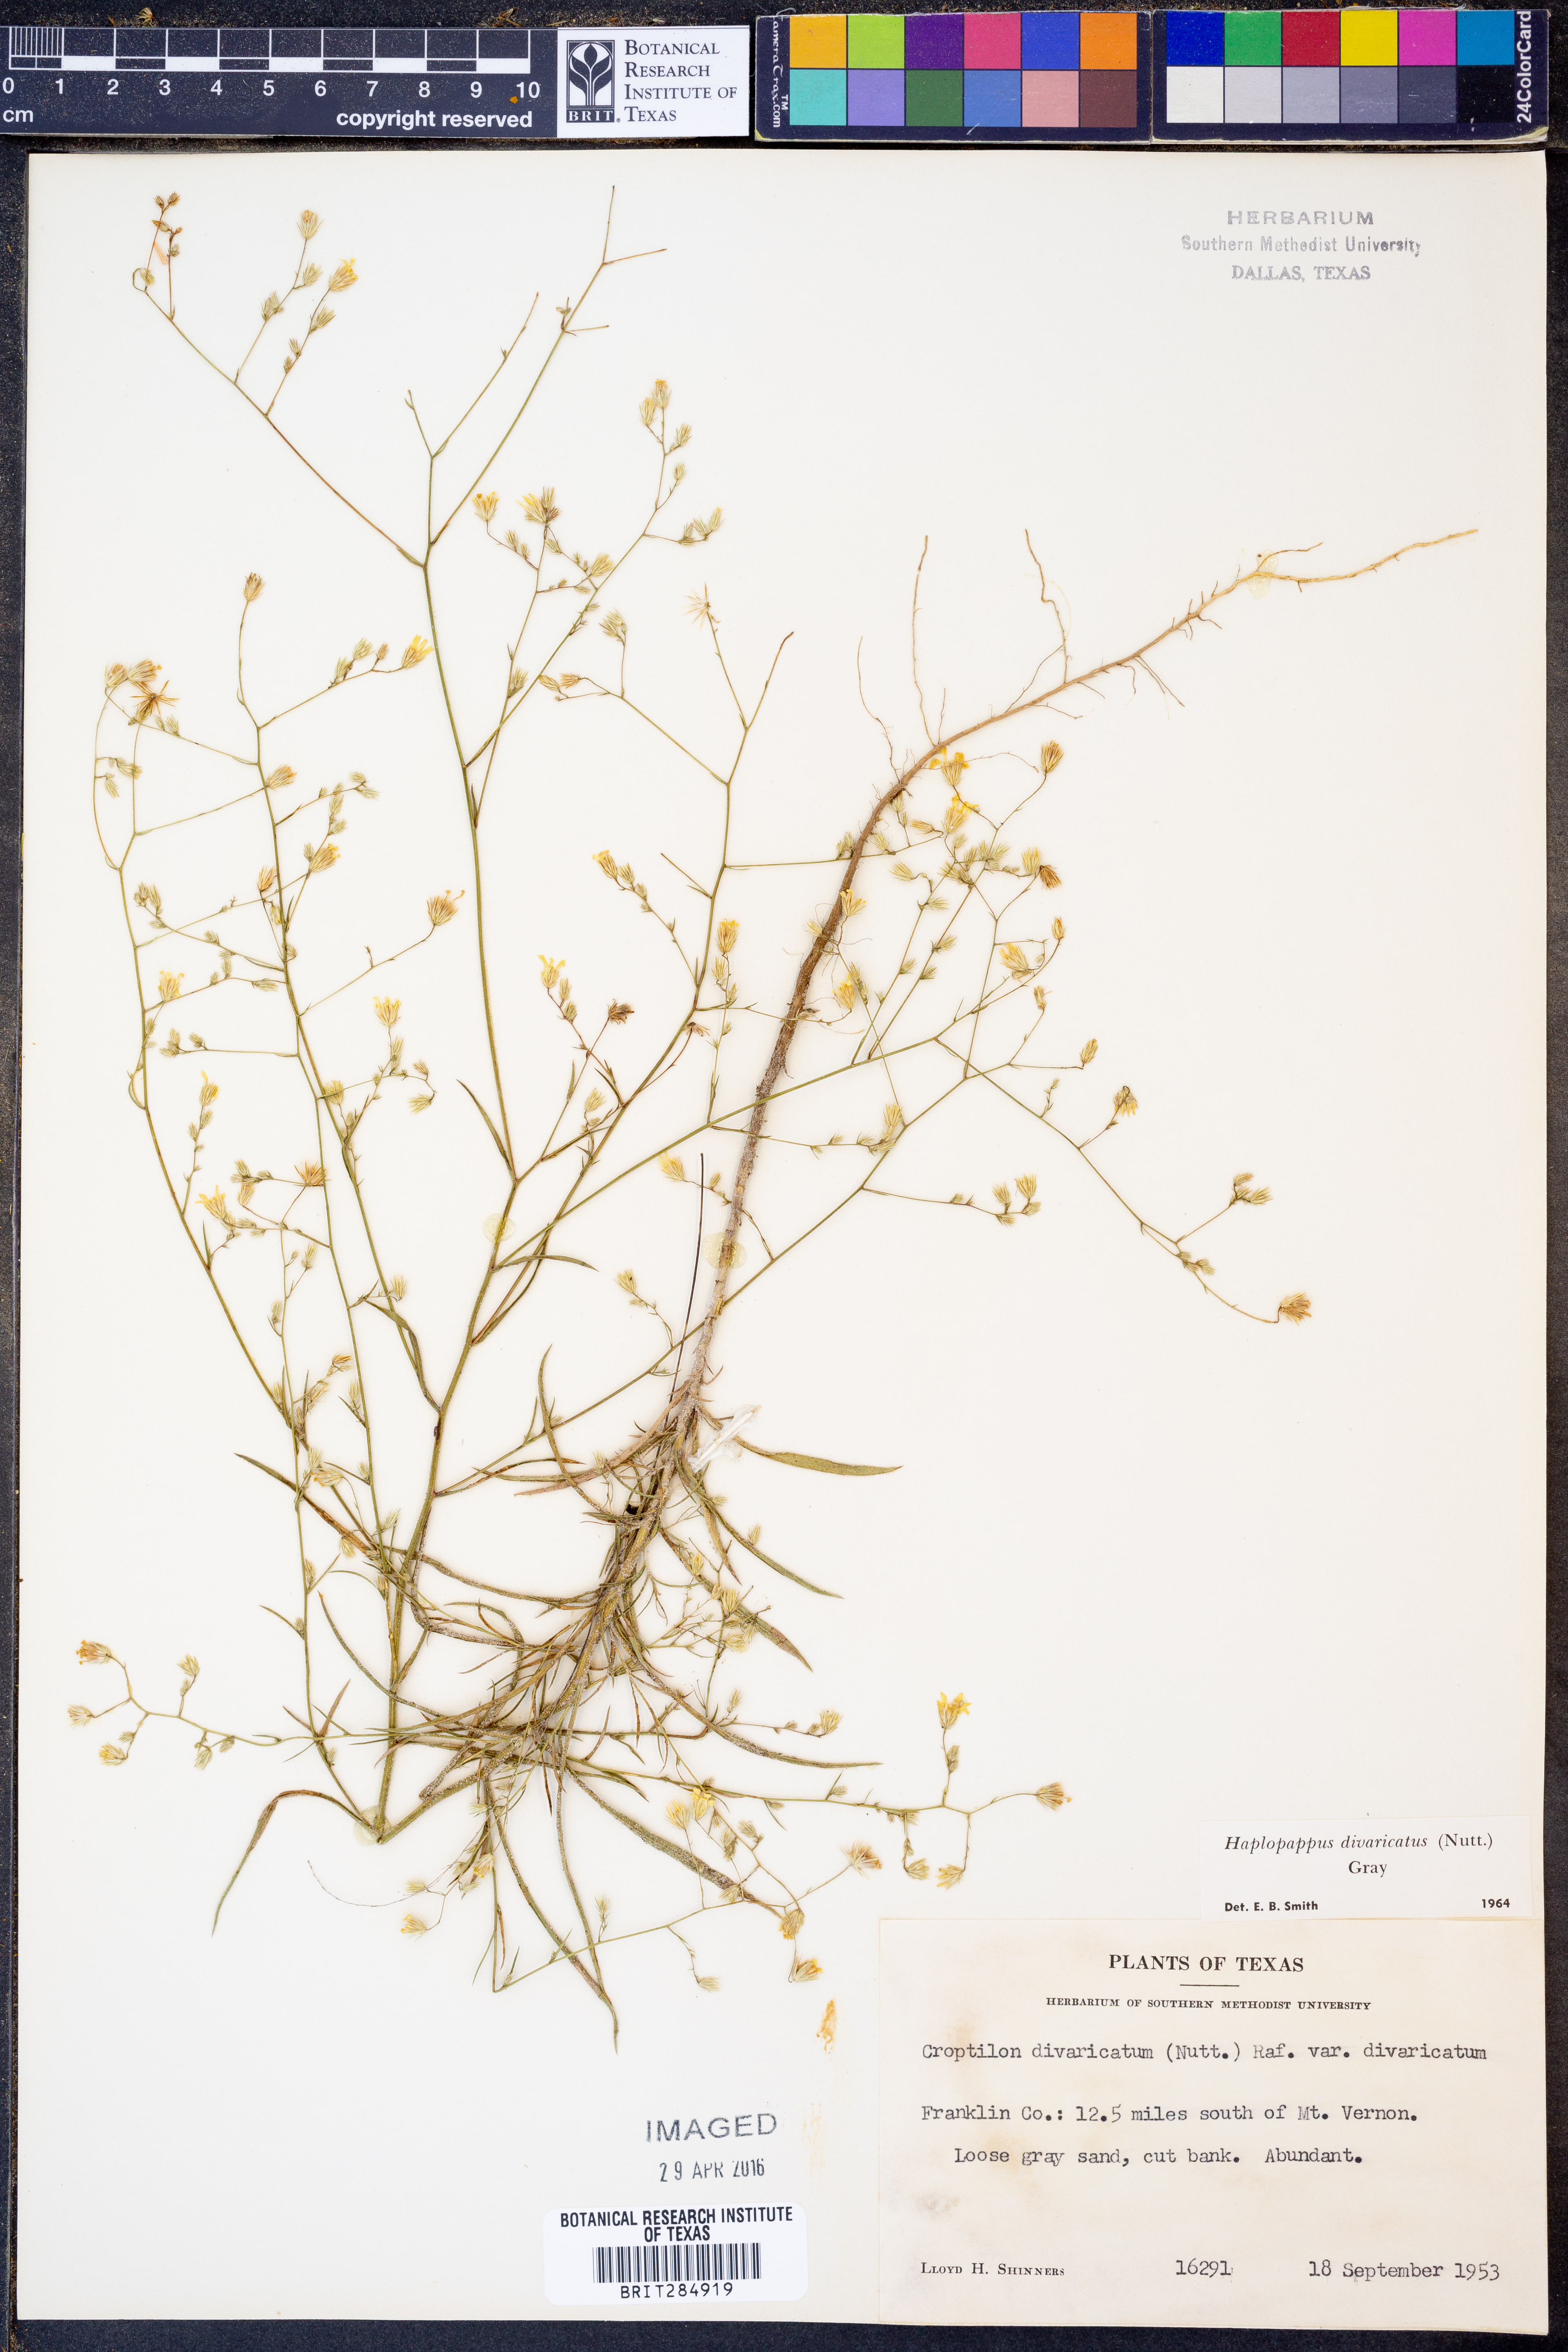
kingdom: Plantae
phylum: Tracheophyta
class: Magnoliopsida
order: Asterales
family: Asteraceae
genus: Croptilon
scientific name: Croptilon divaricatum
